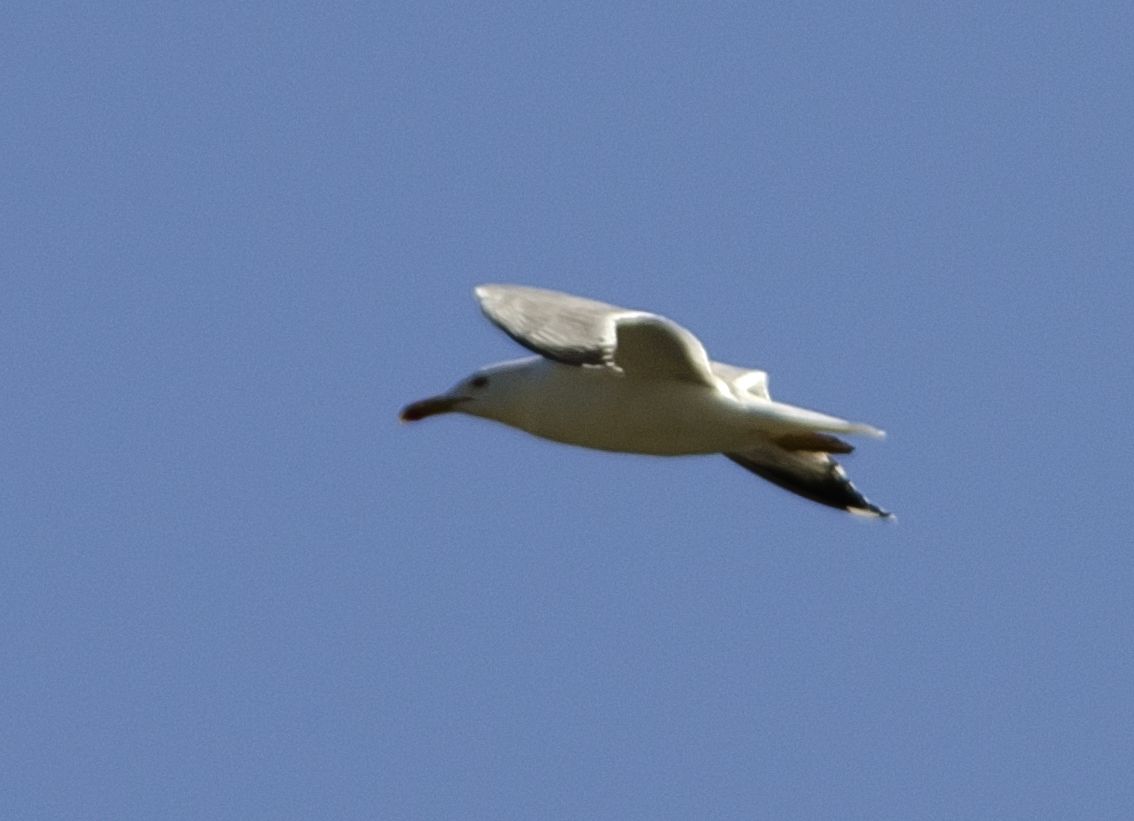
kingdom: Animalia
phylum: Chordata
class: Aves
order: Charadriiformes
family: Laridae
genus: Larus
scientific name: Larus michahellis
